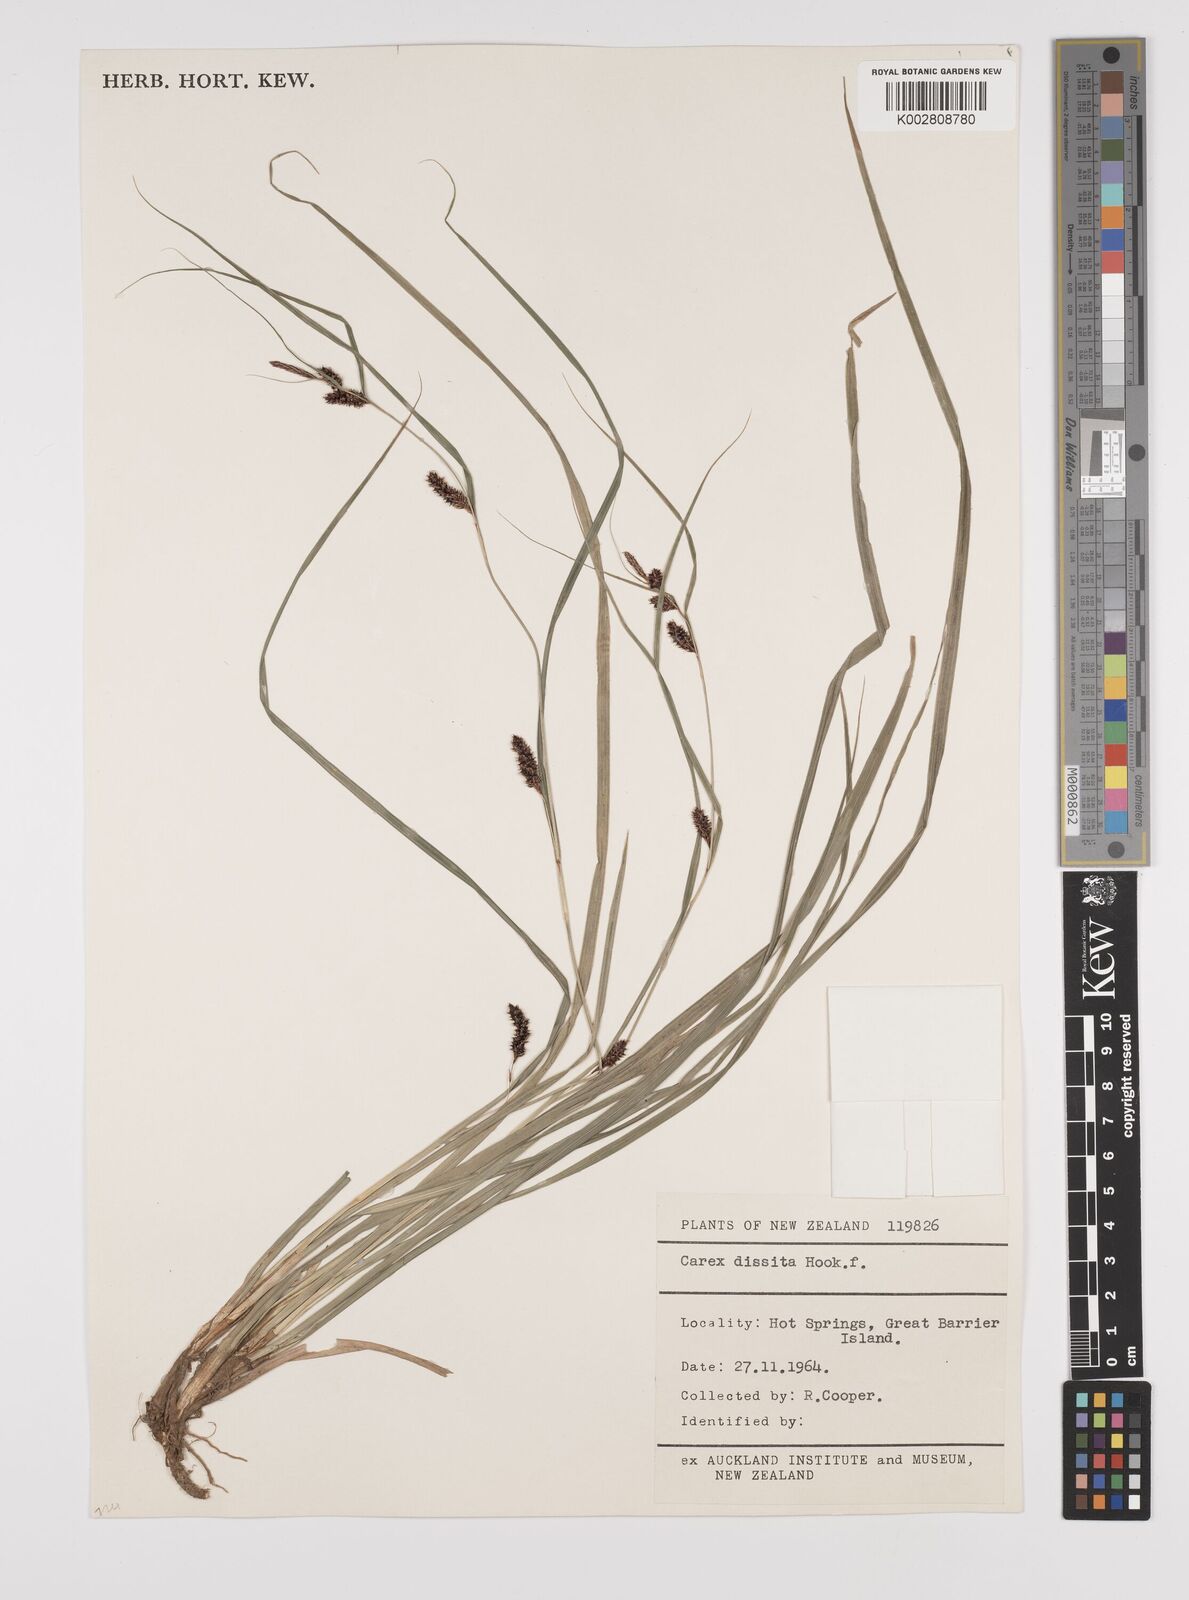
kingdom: Plantae
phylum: Tracheophyta
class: Liliopsida
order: Poales
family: Cyperaceae
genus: Carex
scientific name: Carex dissita
